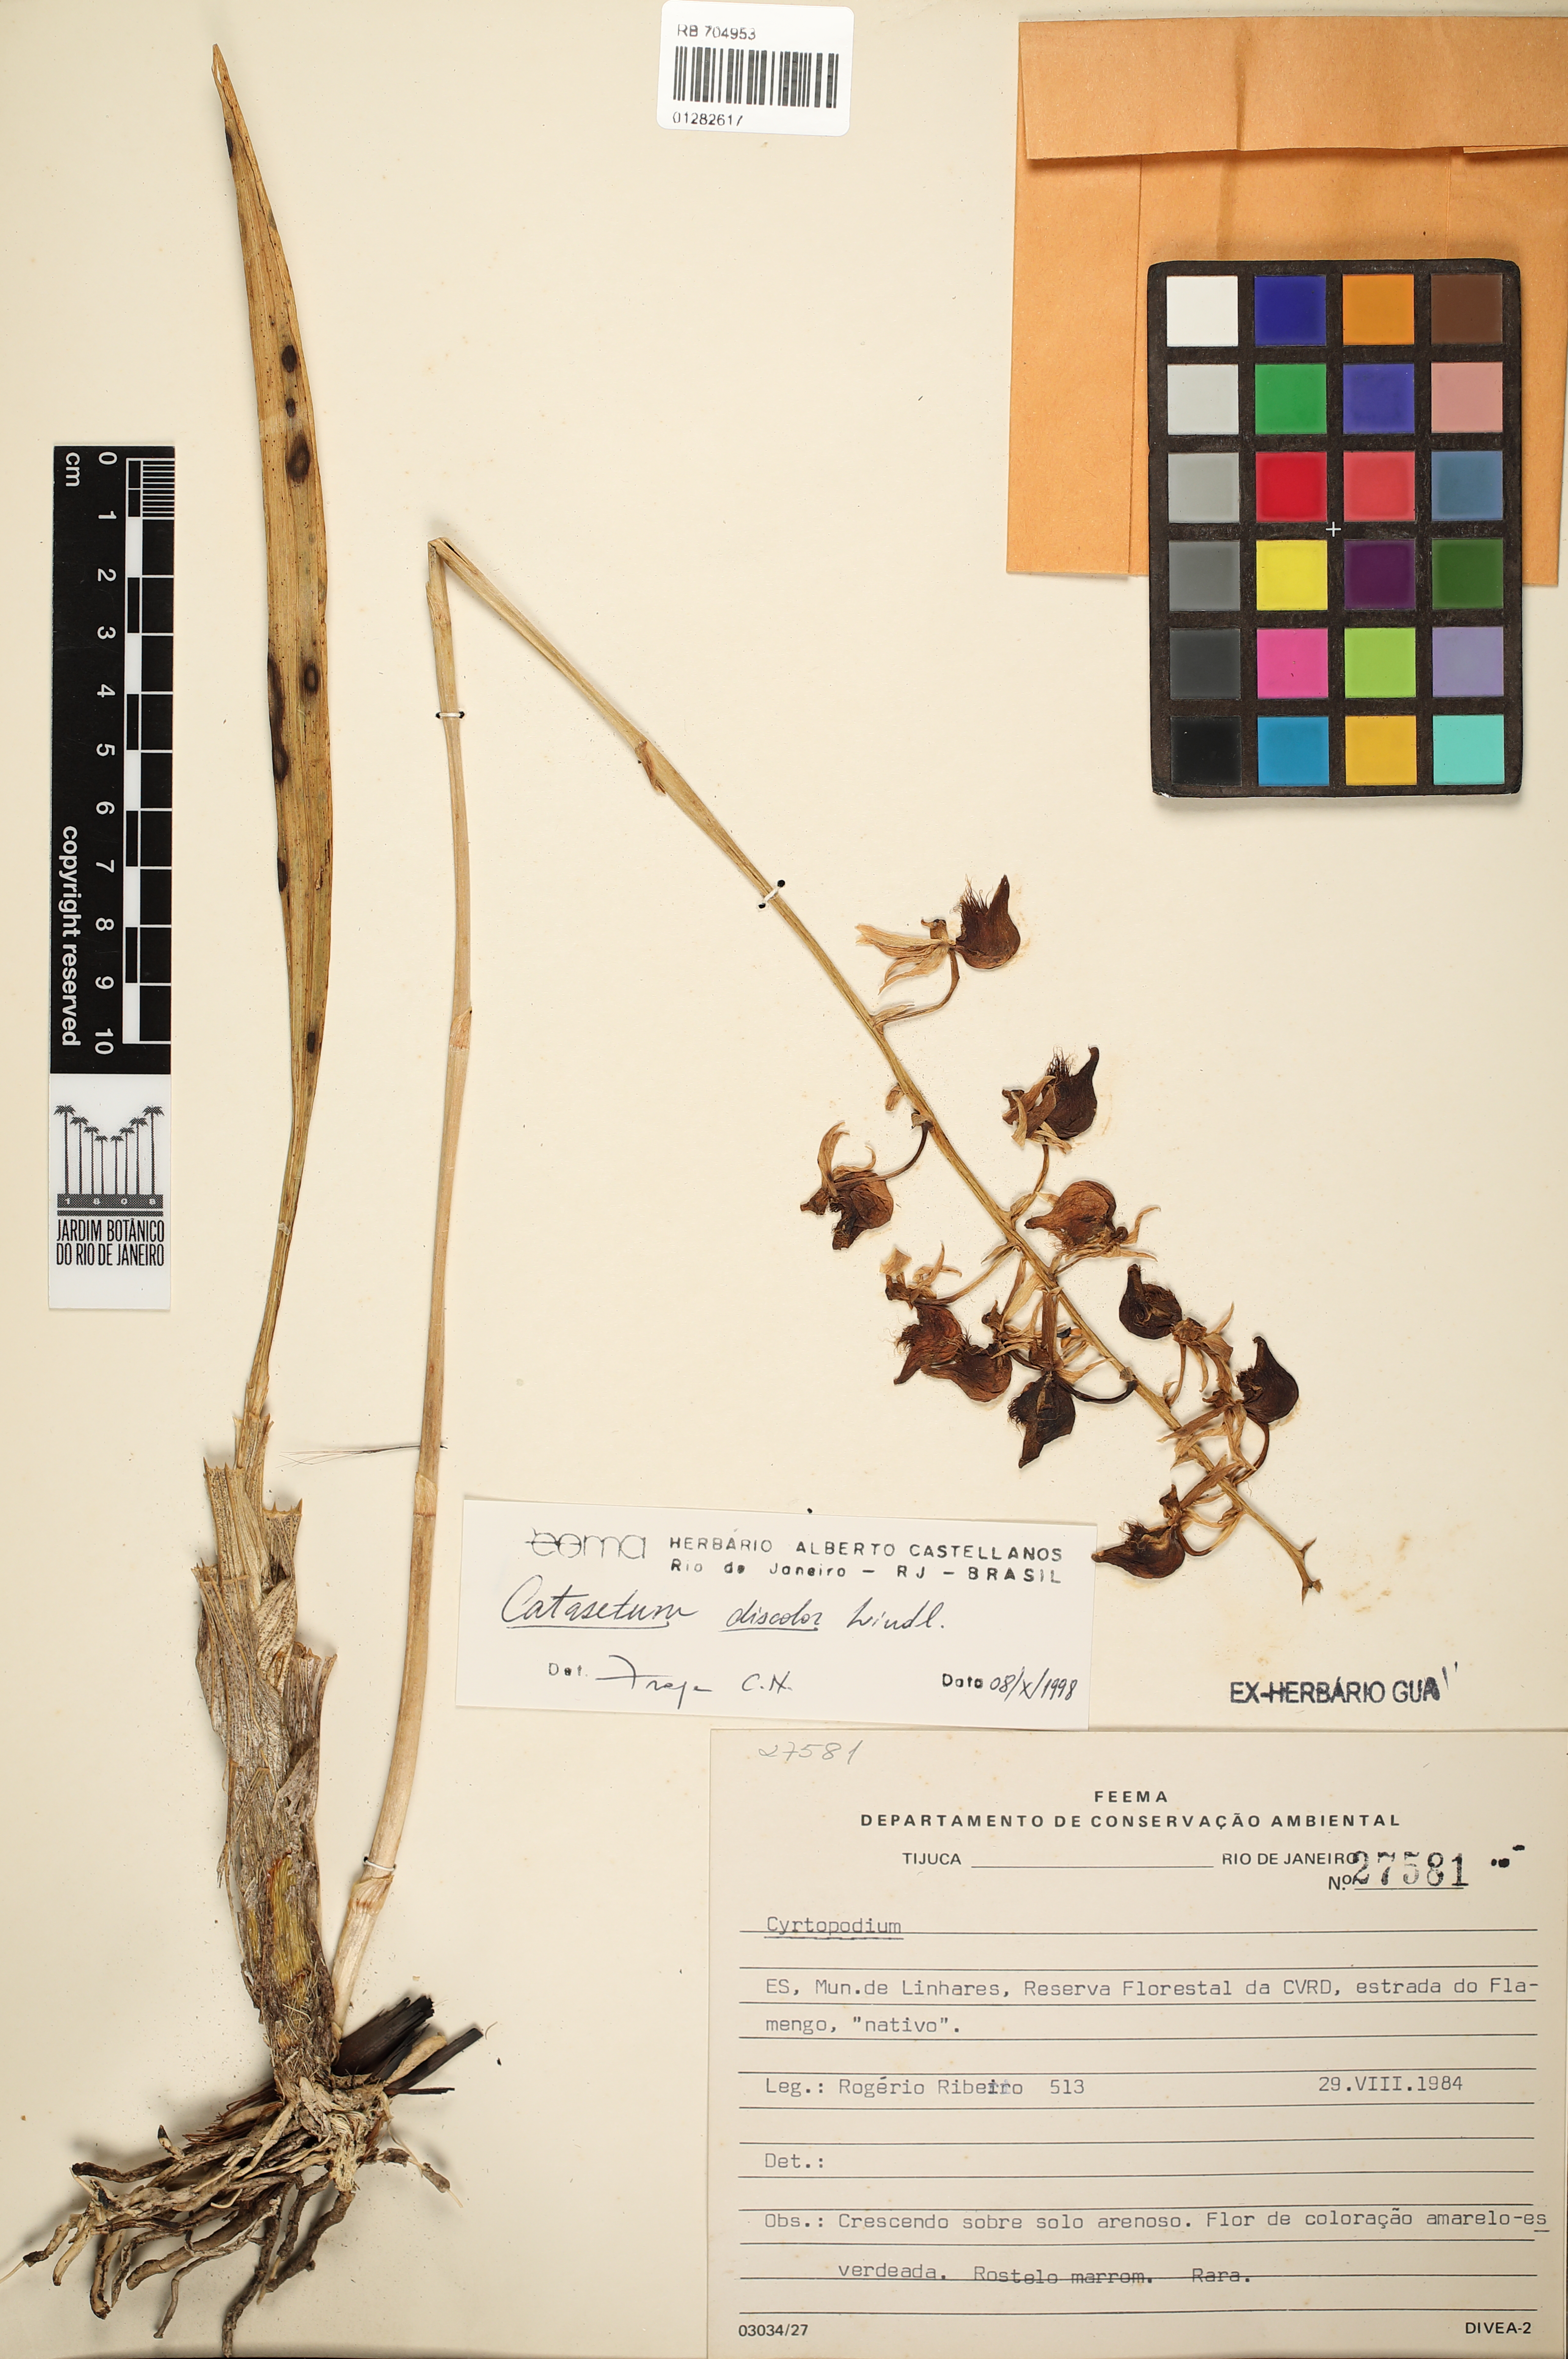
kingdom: Plantae
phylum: Tracheophyta
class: Liliopsida
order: Asparagales
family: Orchidaceae
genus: Catasetum
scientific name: Catasetum discolor
